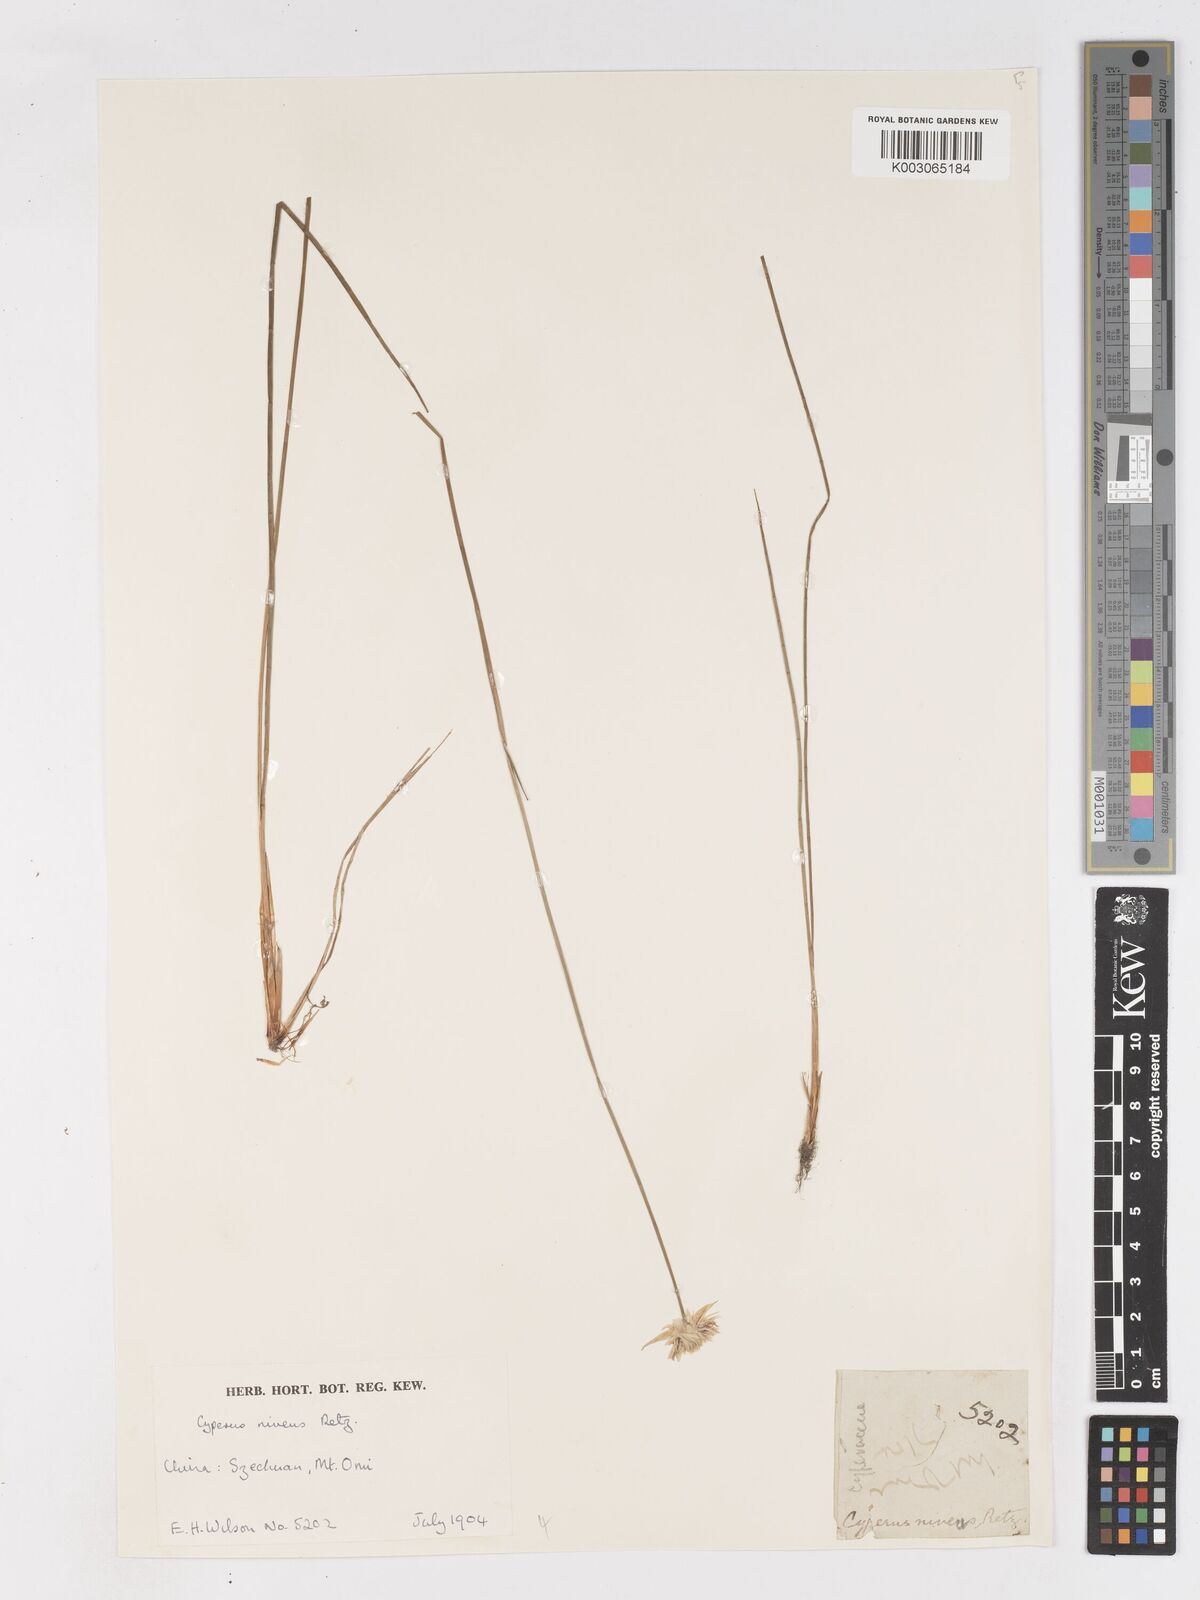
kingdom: Plantae
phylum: Tracheophyta
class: Liliopsida
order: Poales
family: Cyperaceae
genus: Cyperus
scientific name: Cyperus niveus
